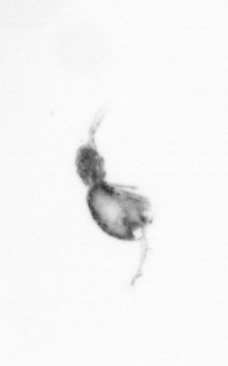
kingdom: Animalia
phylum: Arthropoda
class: Copepoda
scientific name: Copepoda
